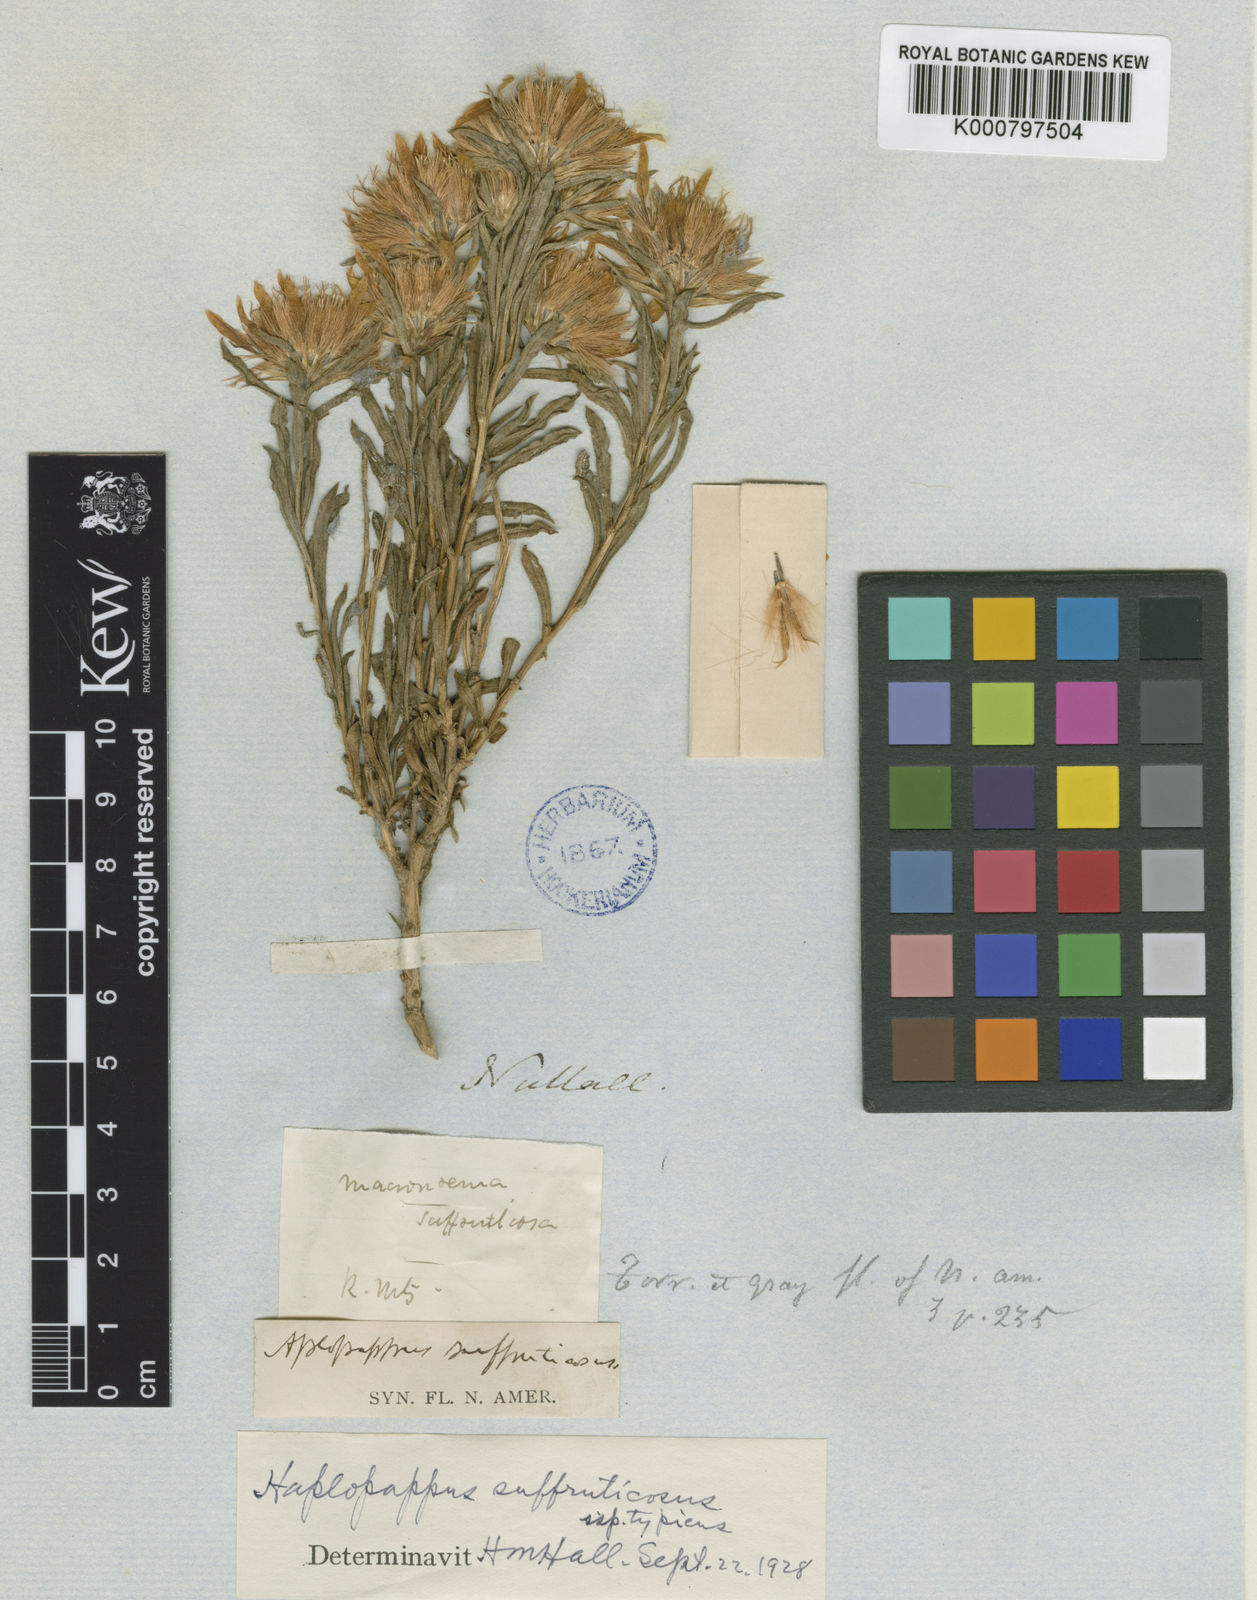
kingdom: Plantae
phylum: Tracheophyta
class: Magnoliopsida
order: Asterales
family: Asteraceae
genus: Ericameria
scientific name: Ericameria suffruticosa
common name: Goldenweed
